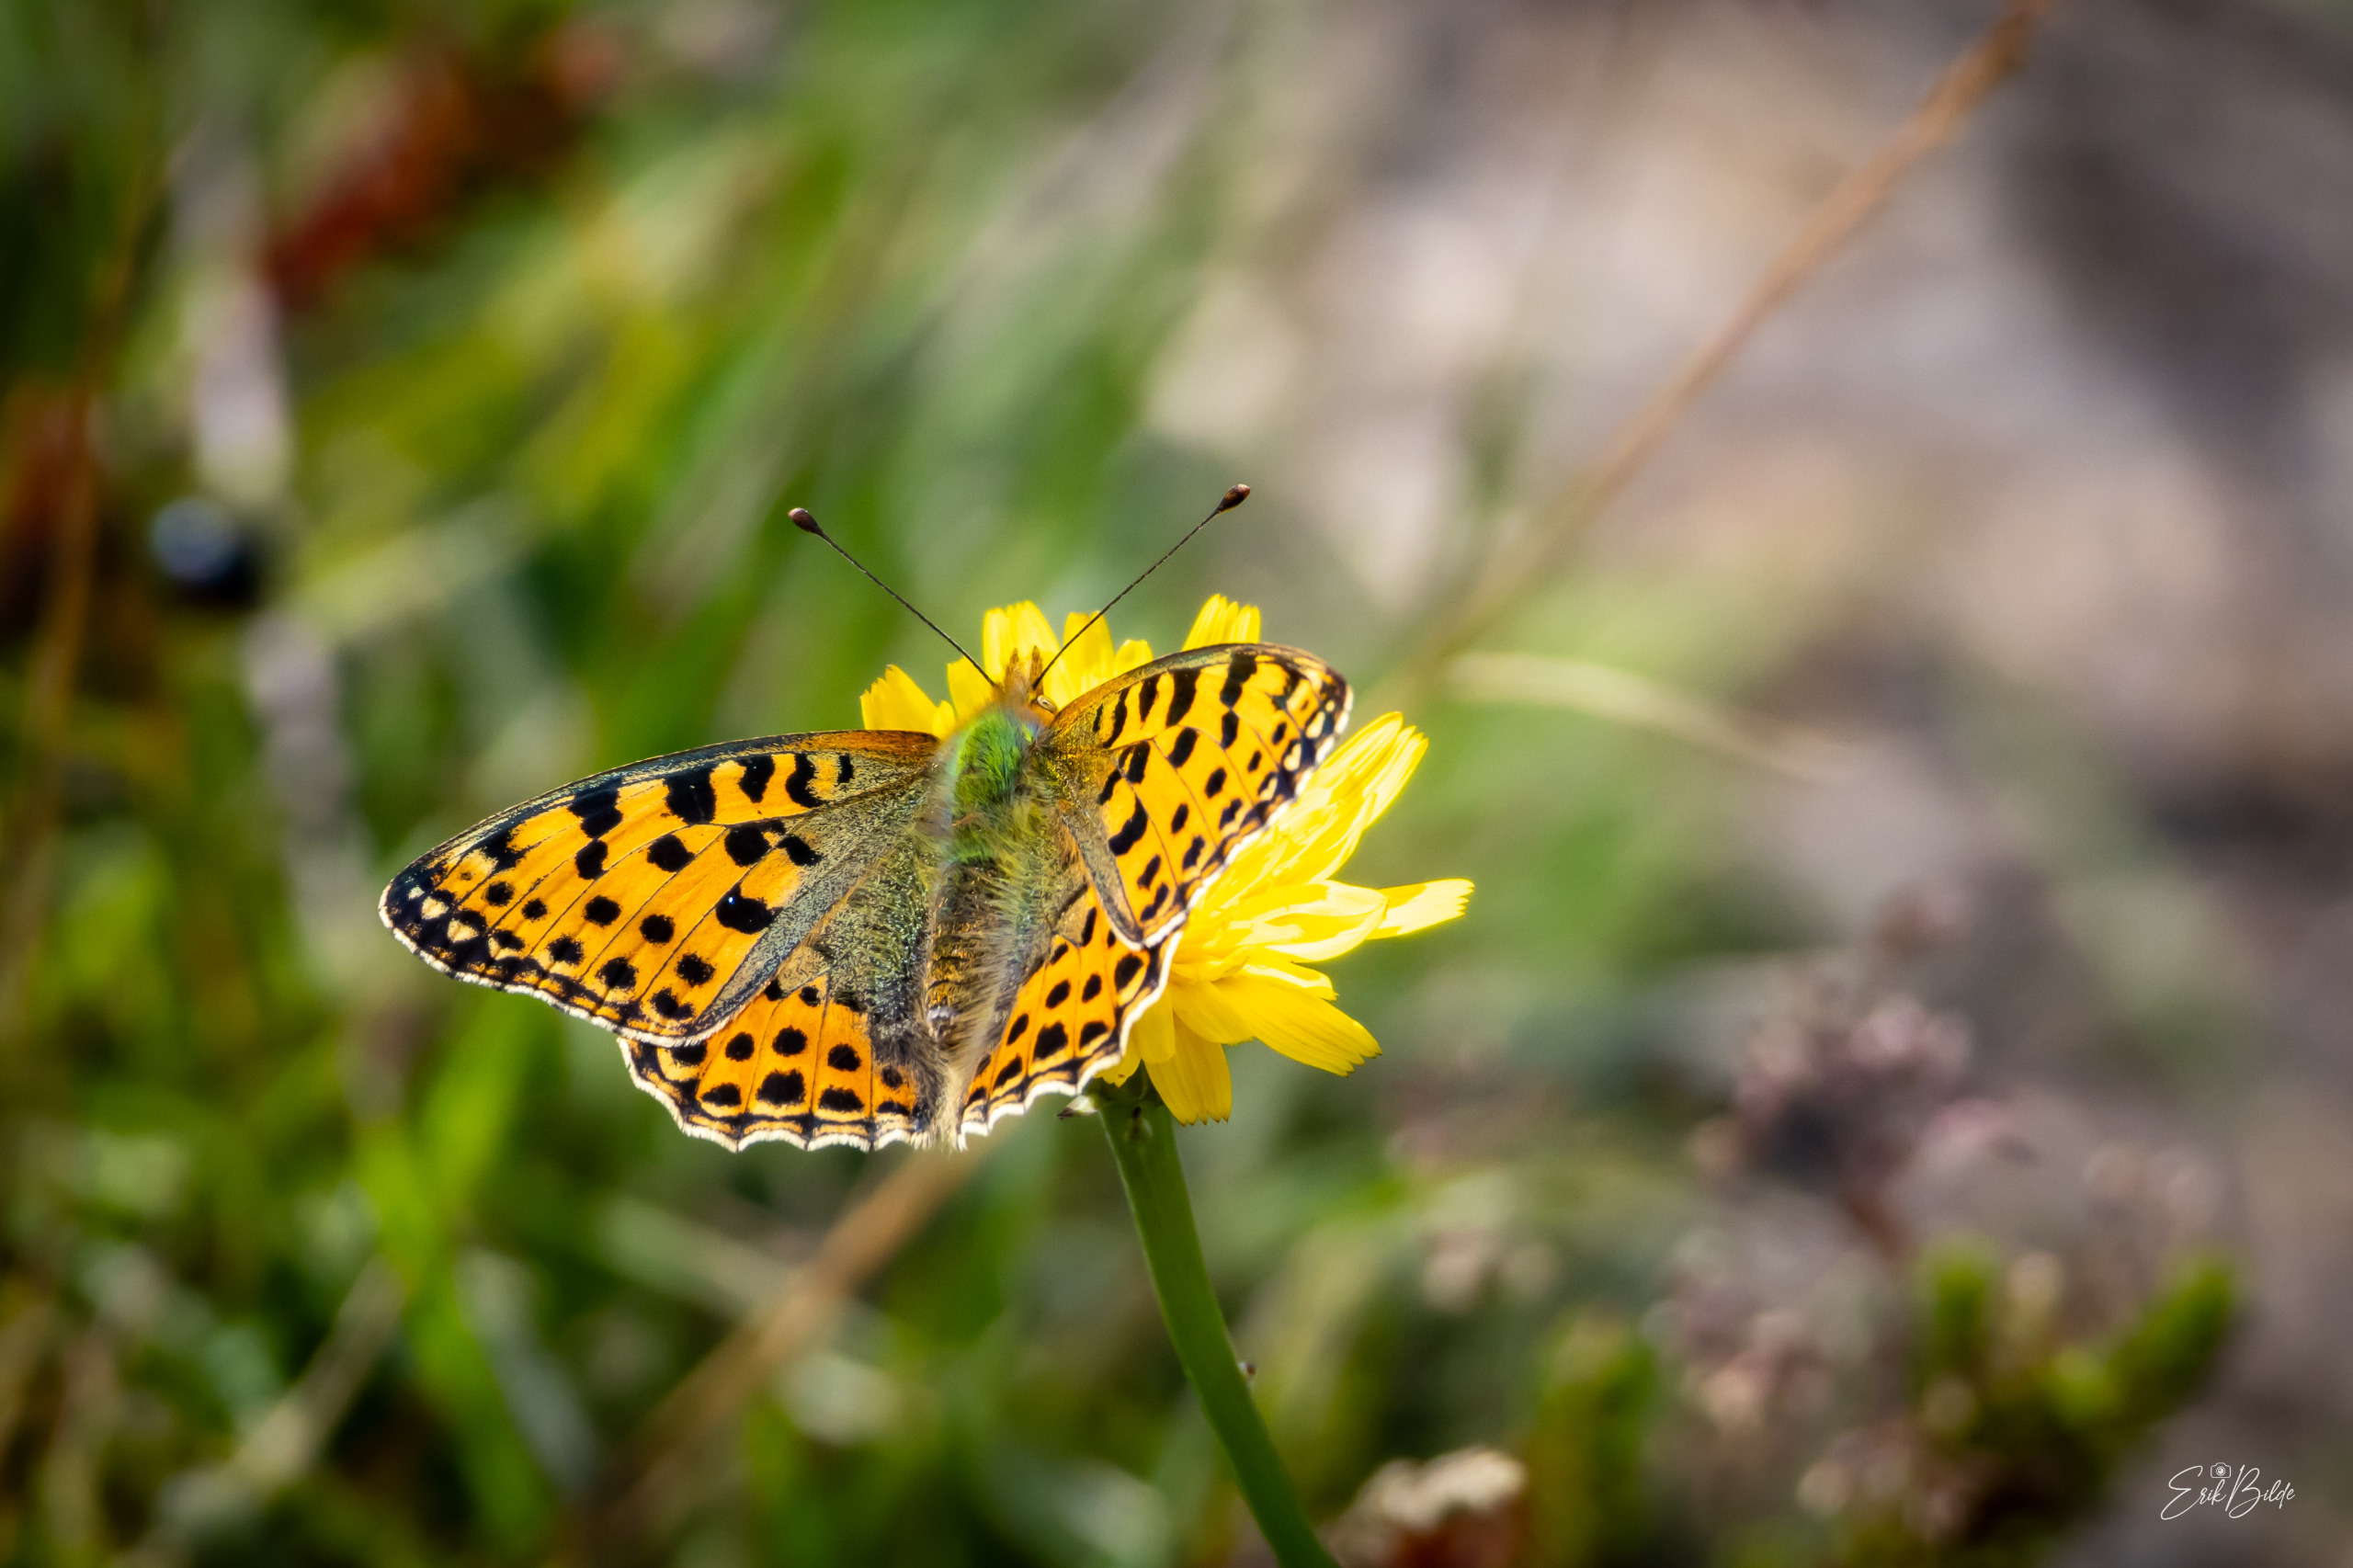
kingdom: Animalia
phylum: Arthropoda
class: Insecta
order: Lepidoptera
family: Nymphalidae
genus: Issoria
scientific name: Issoria lathonia
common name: Storplettet perlemorsommerfugl
